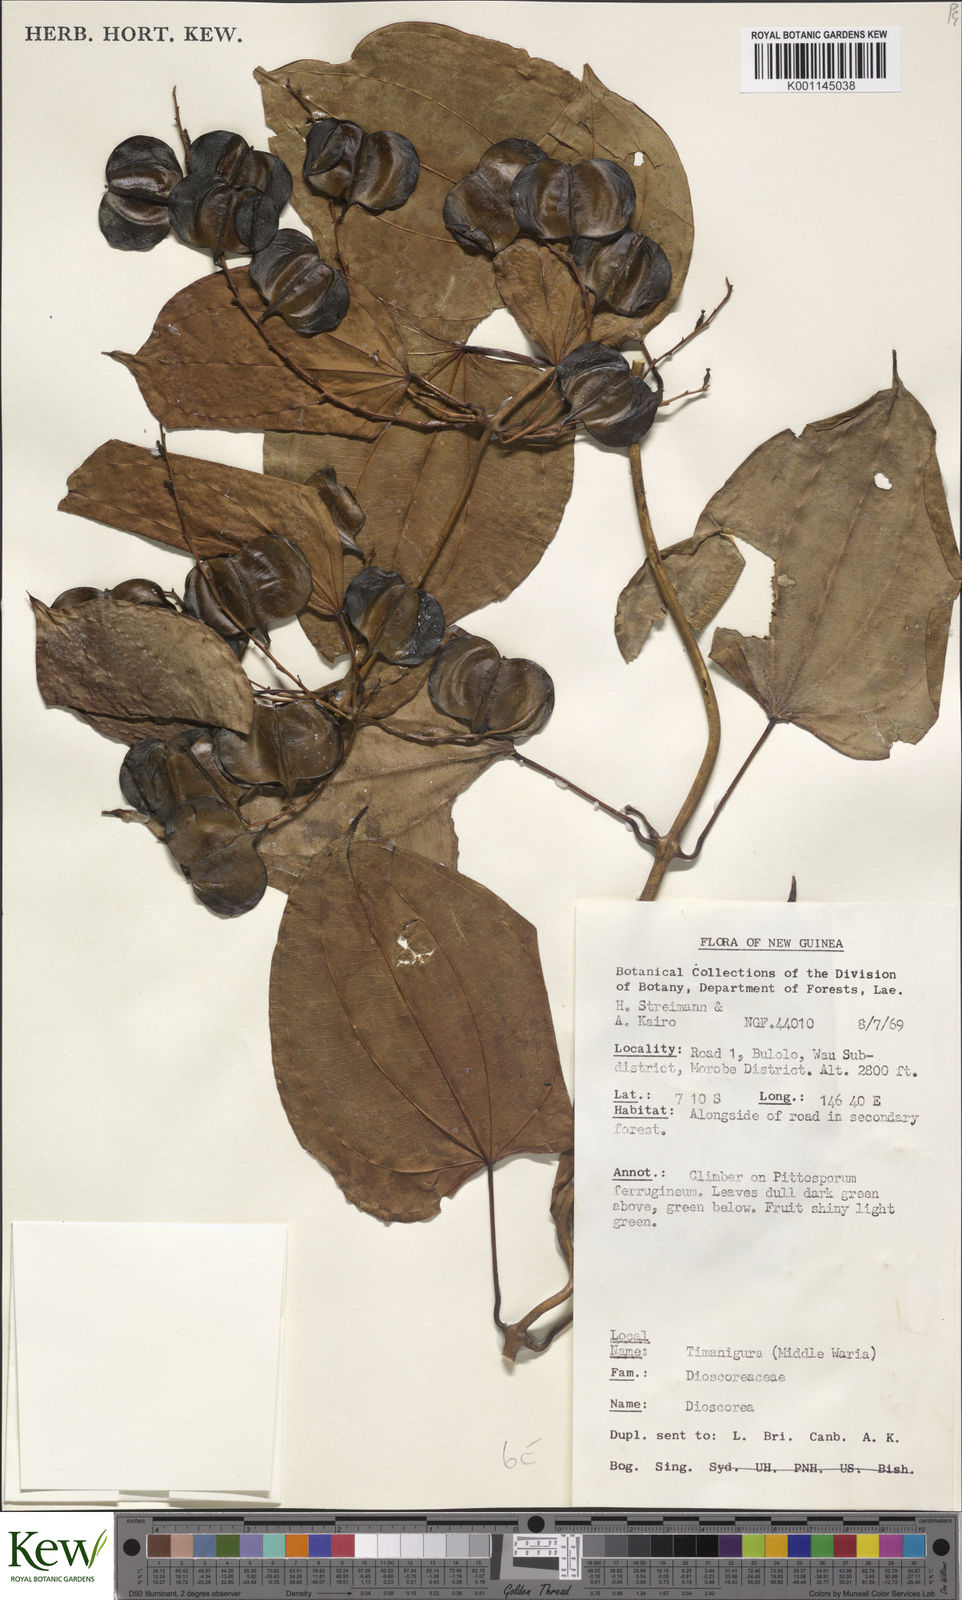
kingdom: Plantae
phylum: Tracheophyta
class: Liliopsida
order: Dioscoreales
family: Dioscoreaceae
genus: Dioscorea
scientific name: Dioscorea
